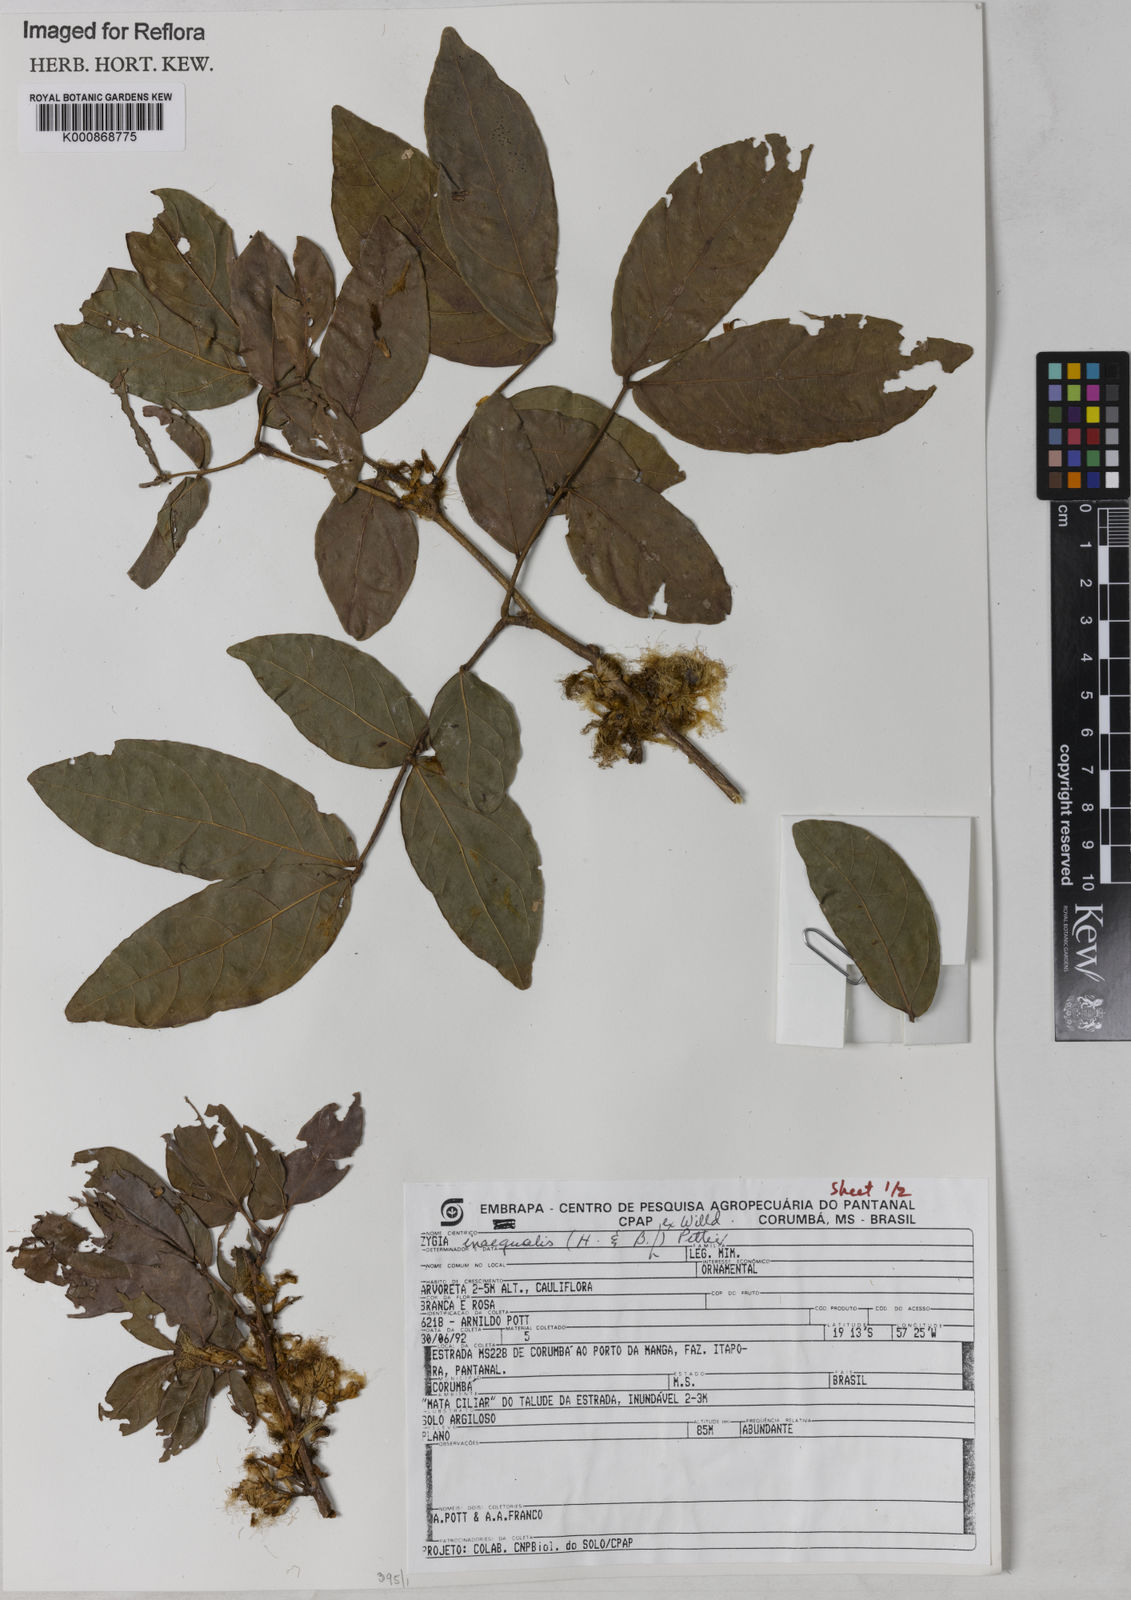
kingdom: Plantae
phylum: Tracheophyta
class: Magnoliopsida
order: Fabales
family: Fabaceae
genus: Zygia
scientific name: Zygia inaequalis
